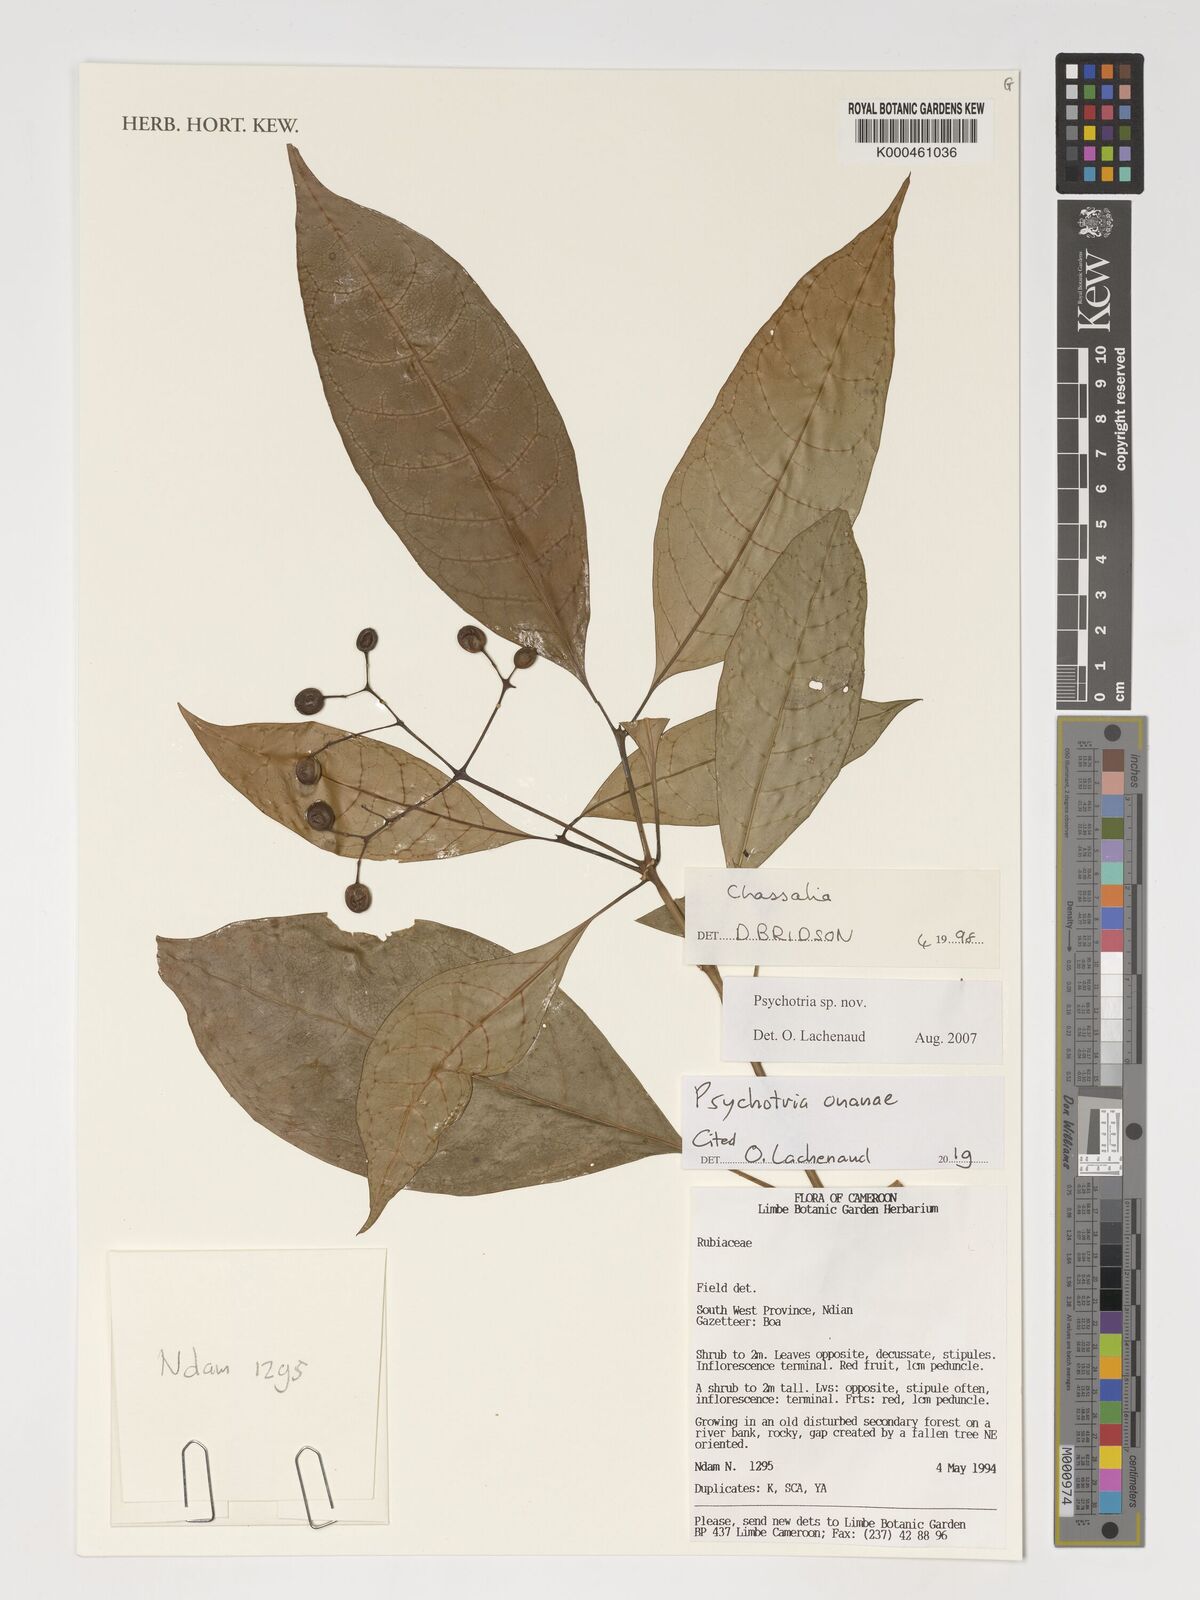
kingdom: Plantae
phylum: Tracheophyta
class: Magnoliopsida
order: Gentianales
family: Rubiaceae
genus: Psychotria
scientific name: Psychotria onanae
